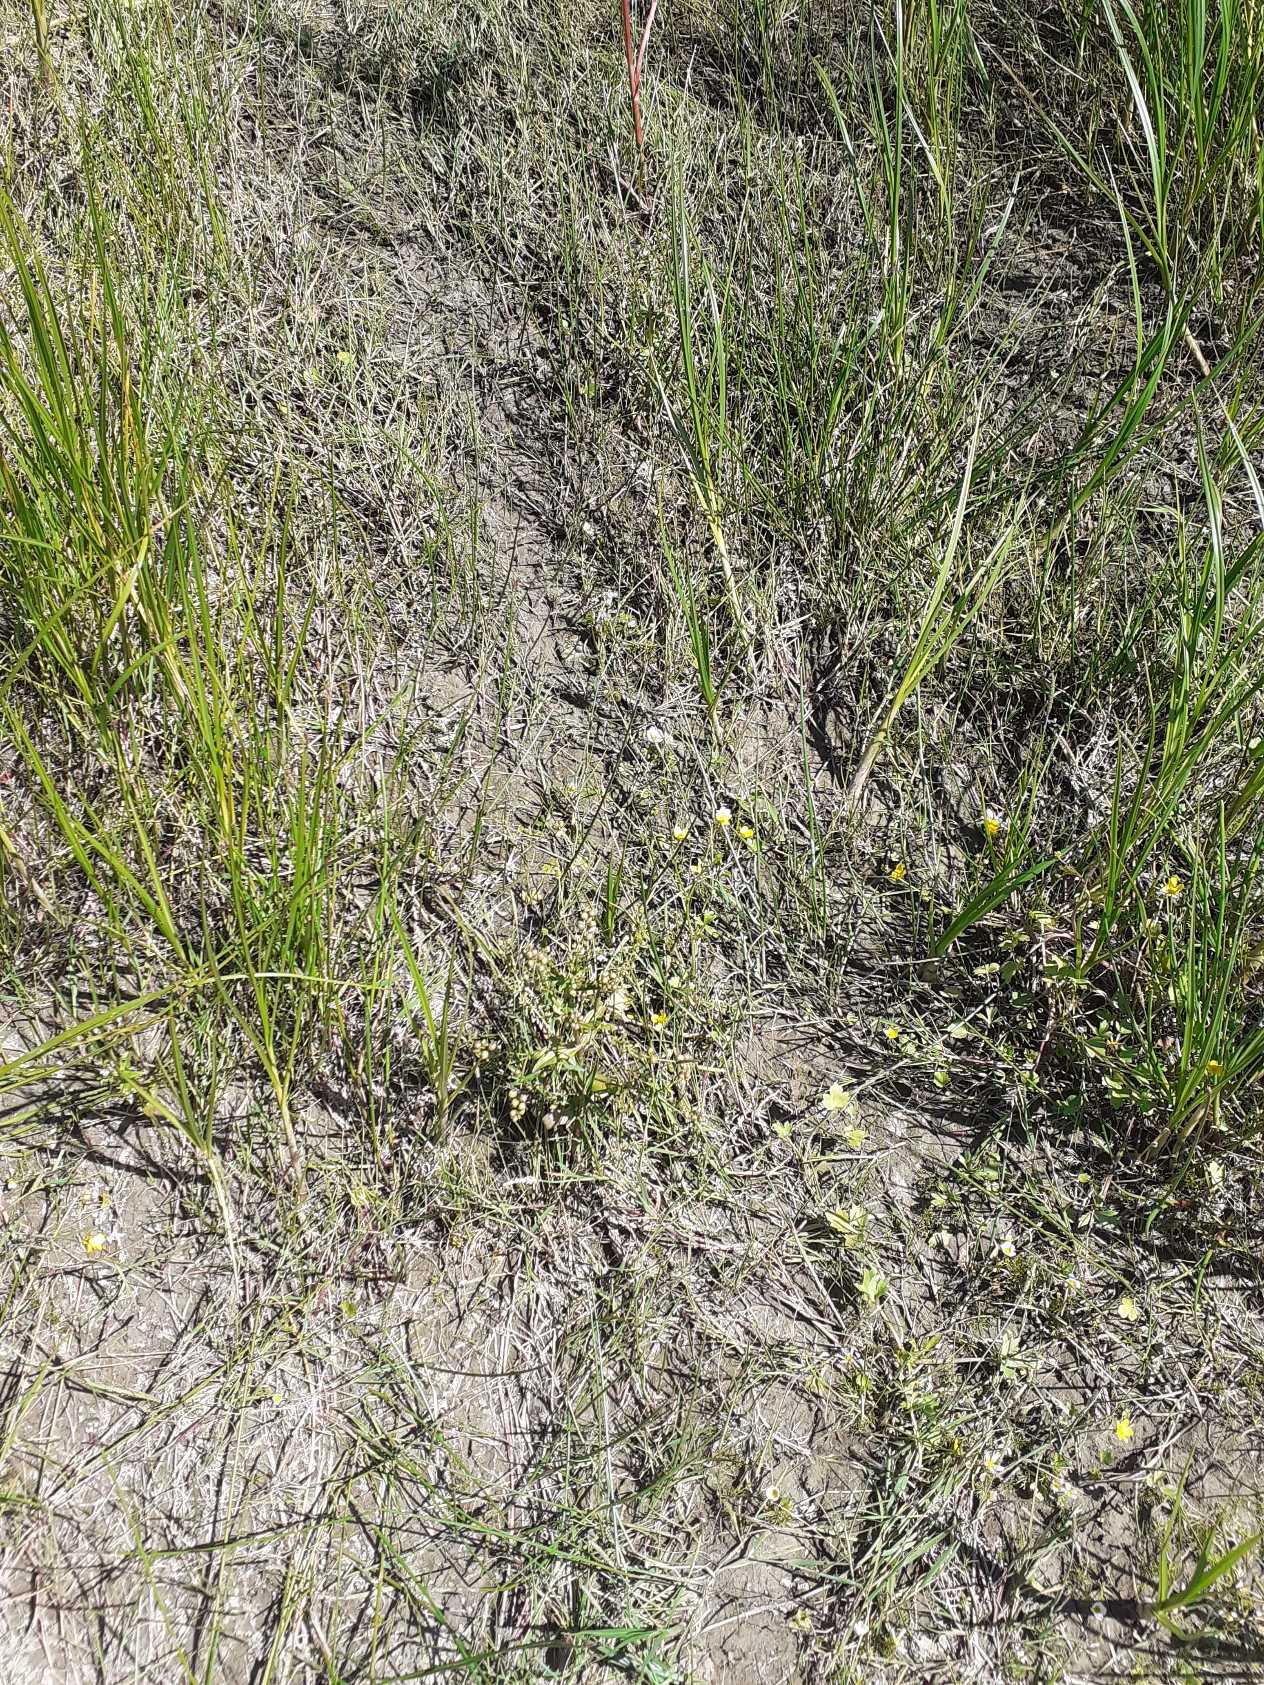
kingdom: Plantae
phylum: Tracheophyta
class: Magnoliopsida
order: Lamiales
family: Plantaginaceae
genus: Veronica
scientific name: Veronica catenata
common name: Vand-ærenpris
